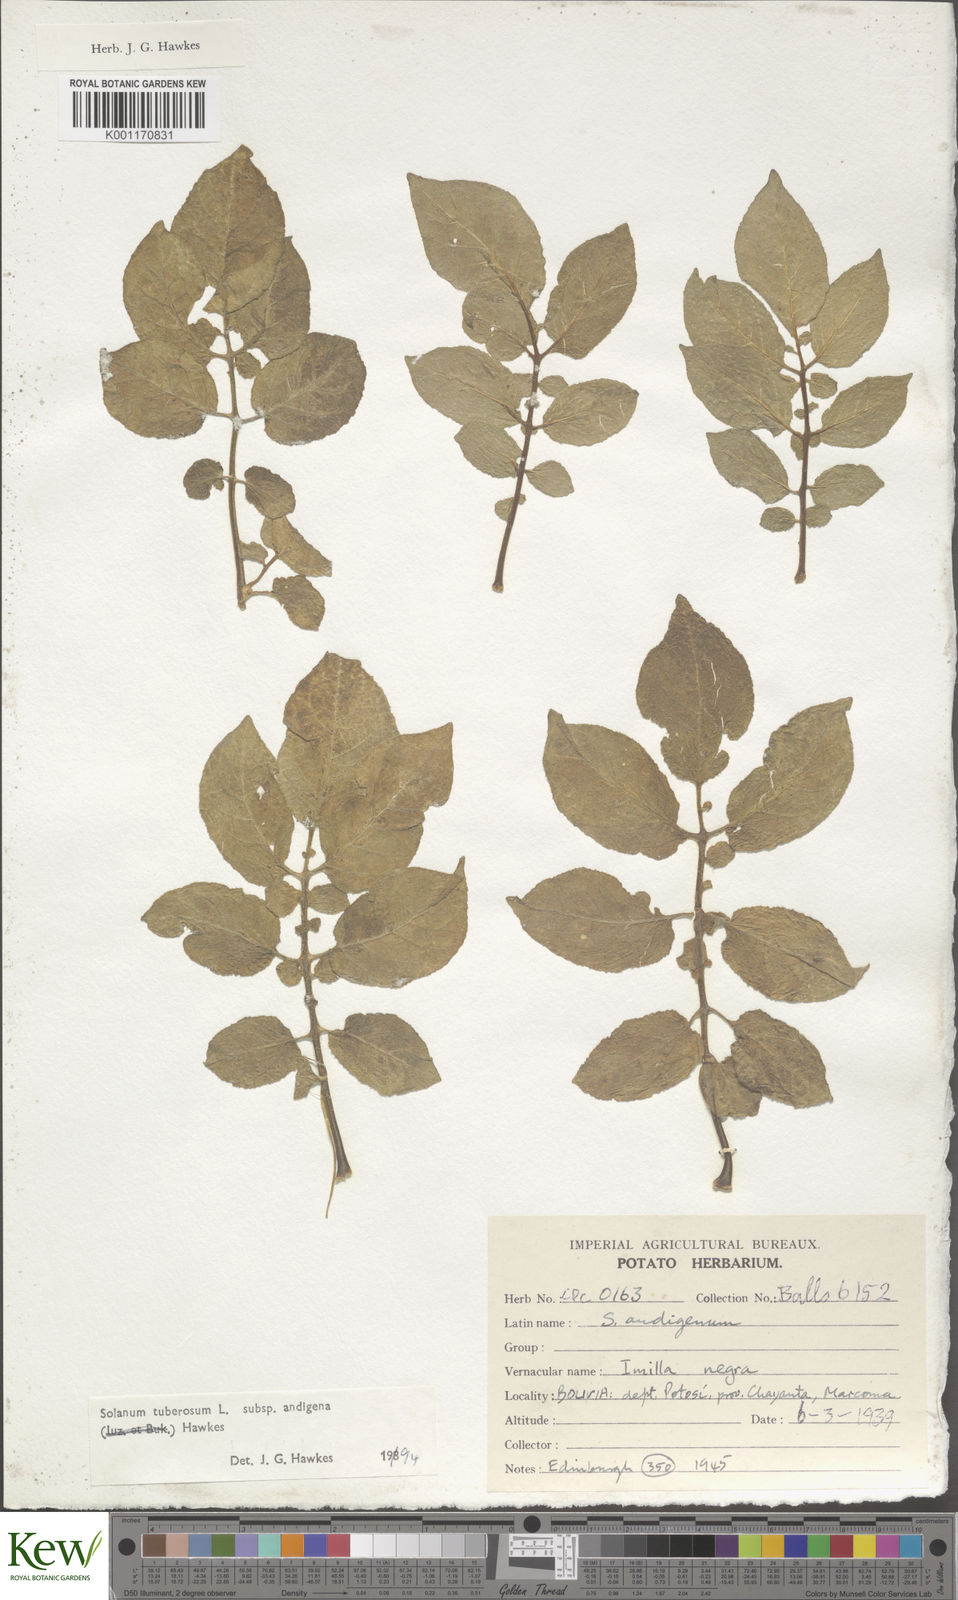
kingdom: Plantae
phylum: Tracheophyta
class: Magnoliopsida
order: Solanales
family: Solanaceae
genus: Solanum
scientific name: Solanum tuberosum
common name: Potato
